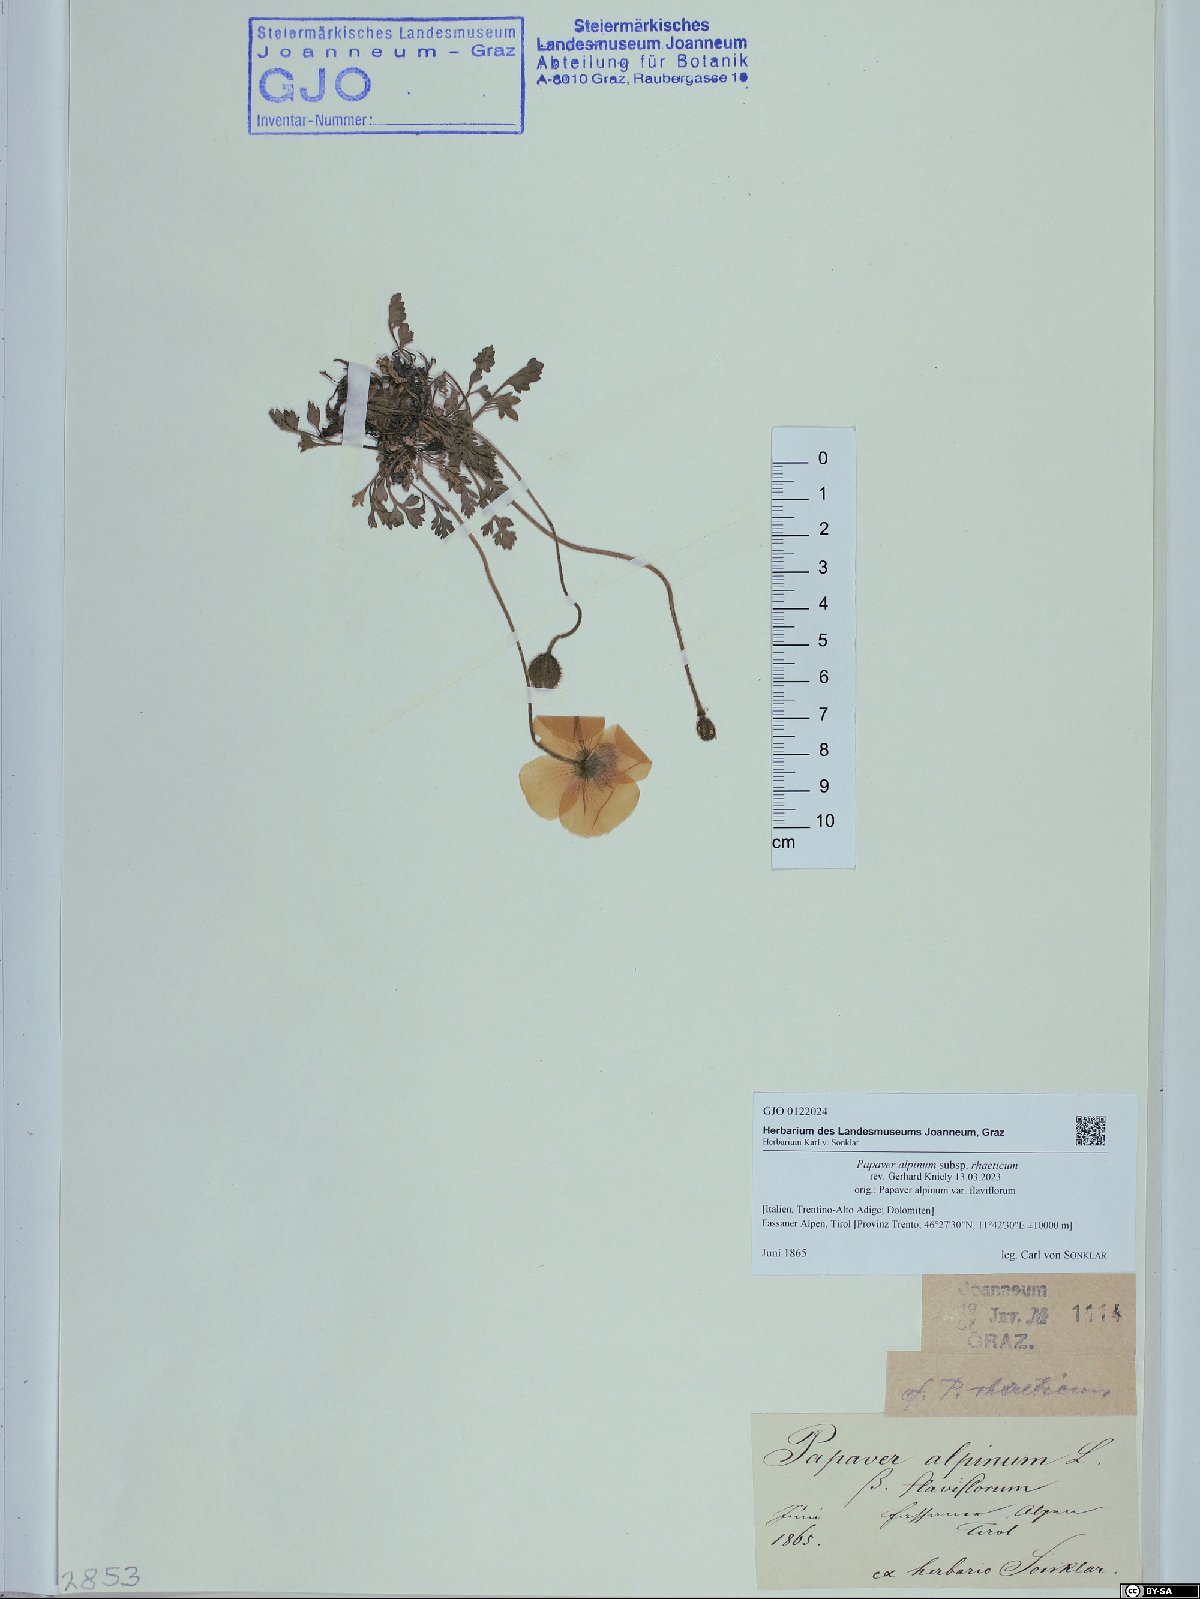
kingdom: Plantae
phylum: Tracheophyta
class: Magnoliopsida
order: Ranunculales
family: Papaveraceae
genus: Papaver
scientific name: Papaver alpinum
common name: Austrian poppy
